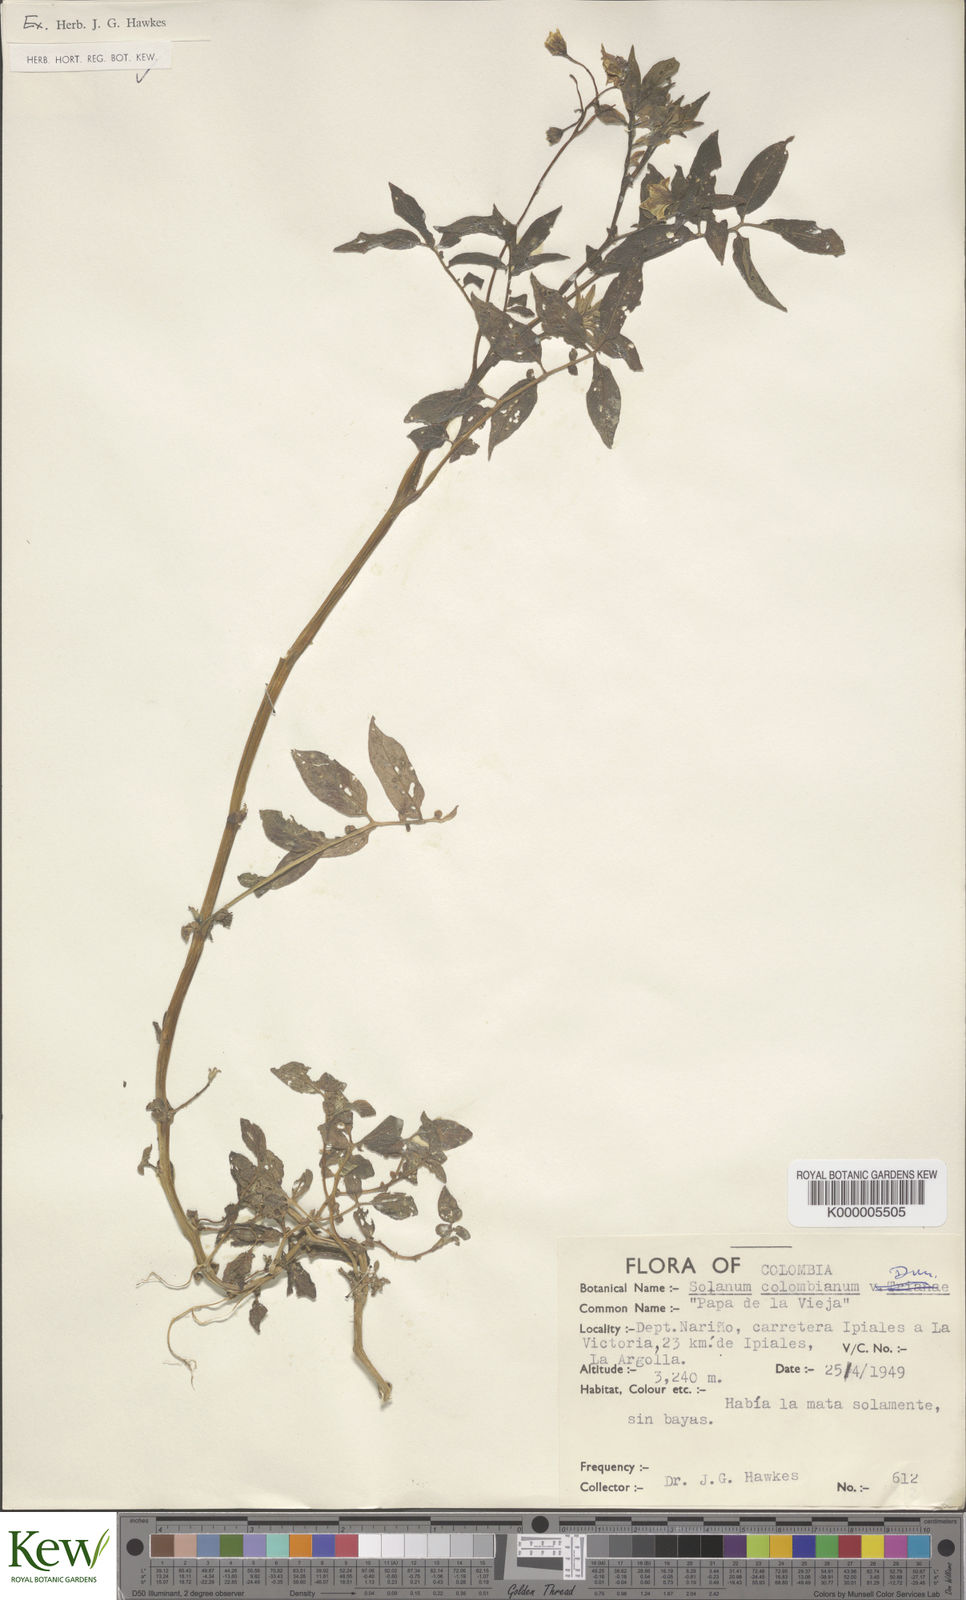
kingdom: Plantae
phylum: Tracheophyta
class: Magnoliopsida
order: Solanales
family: Solanaceae
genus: Solanum
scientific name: Solanum colombianum
